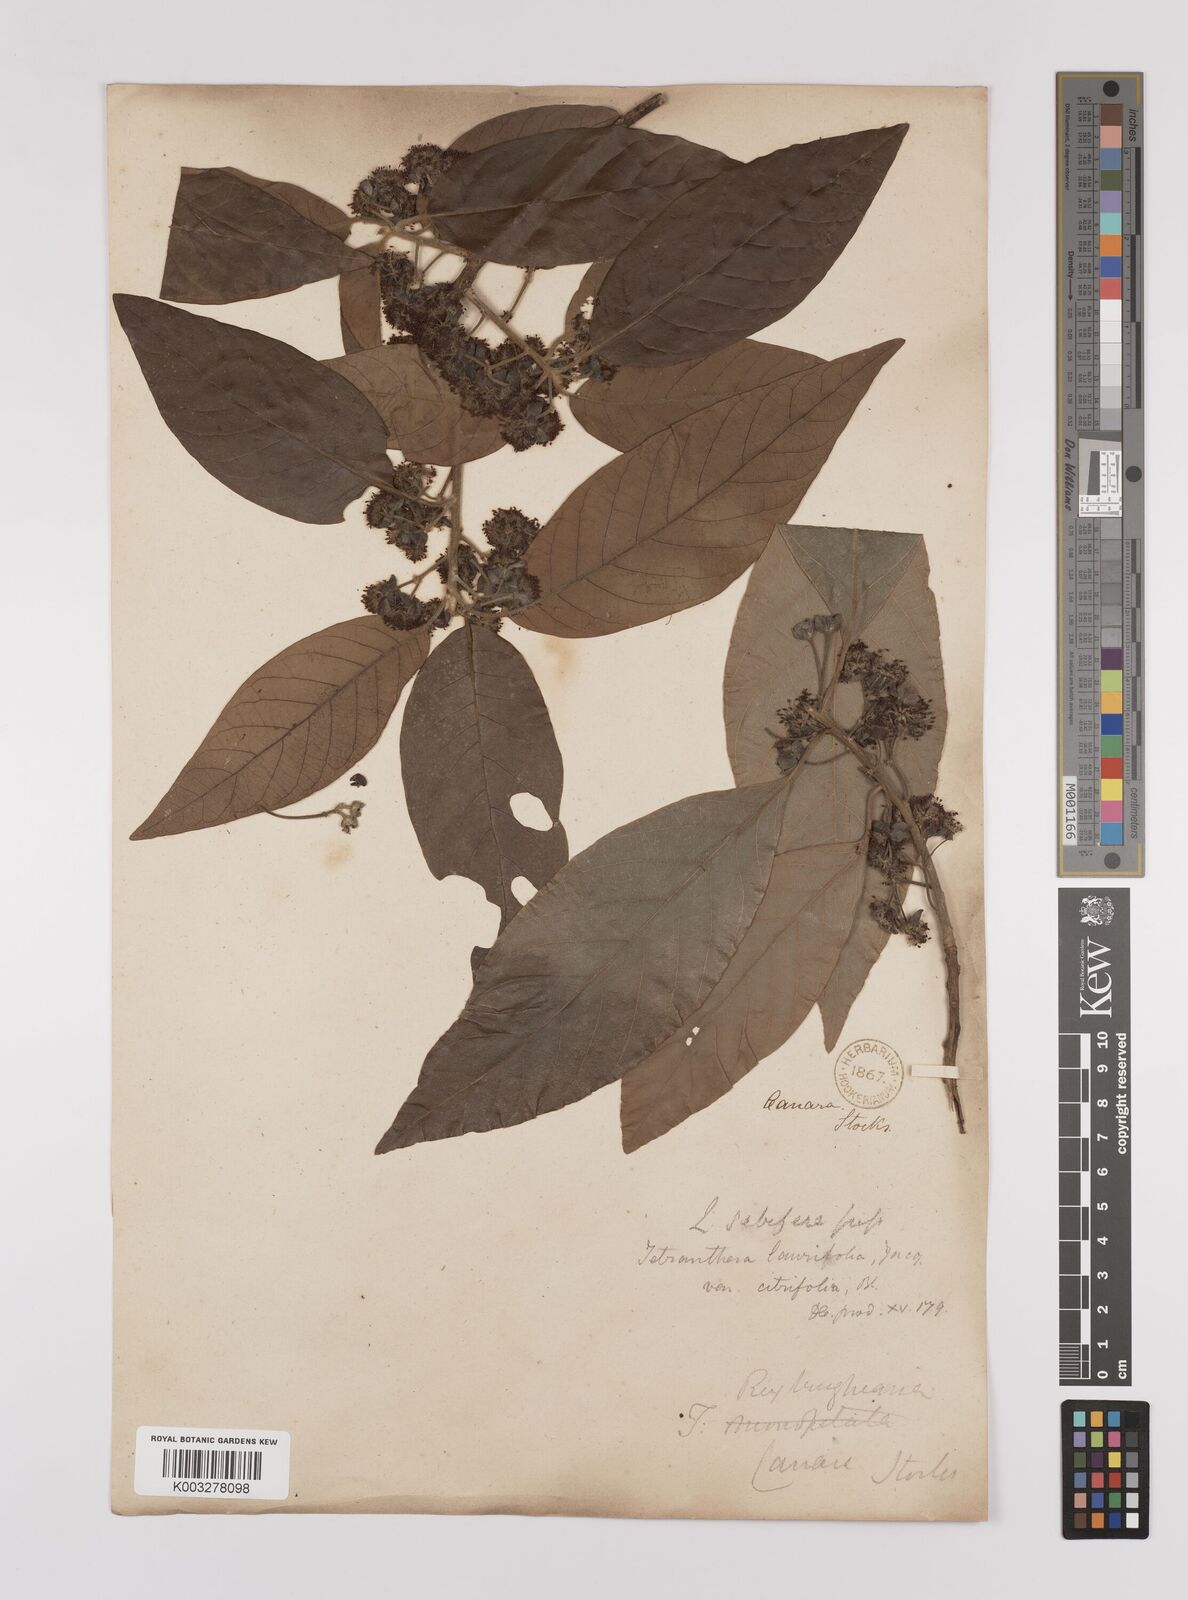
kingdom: Plantae
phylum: Tracheophyta
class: Magnoliopsida
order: Laurales
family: Lauraceae
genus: Litsea
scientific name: Litsea
